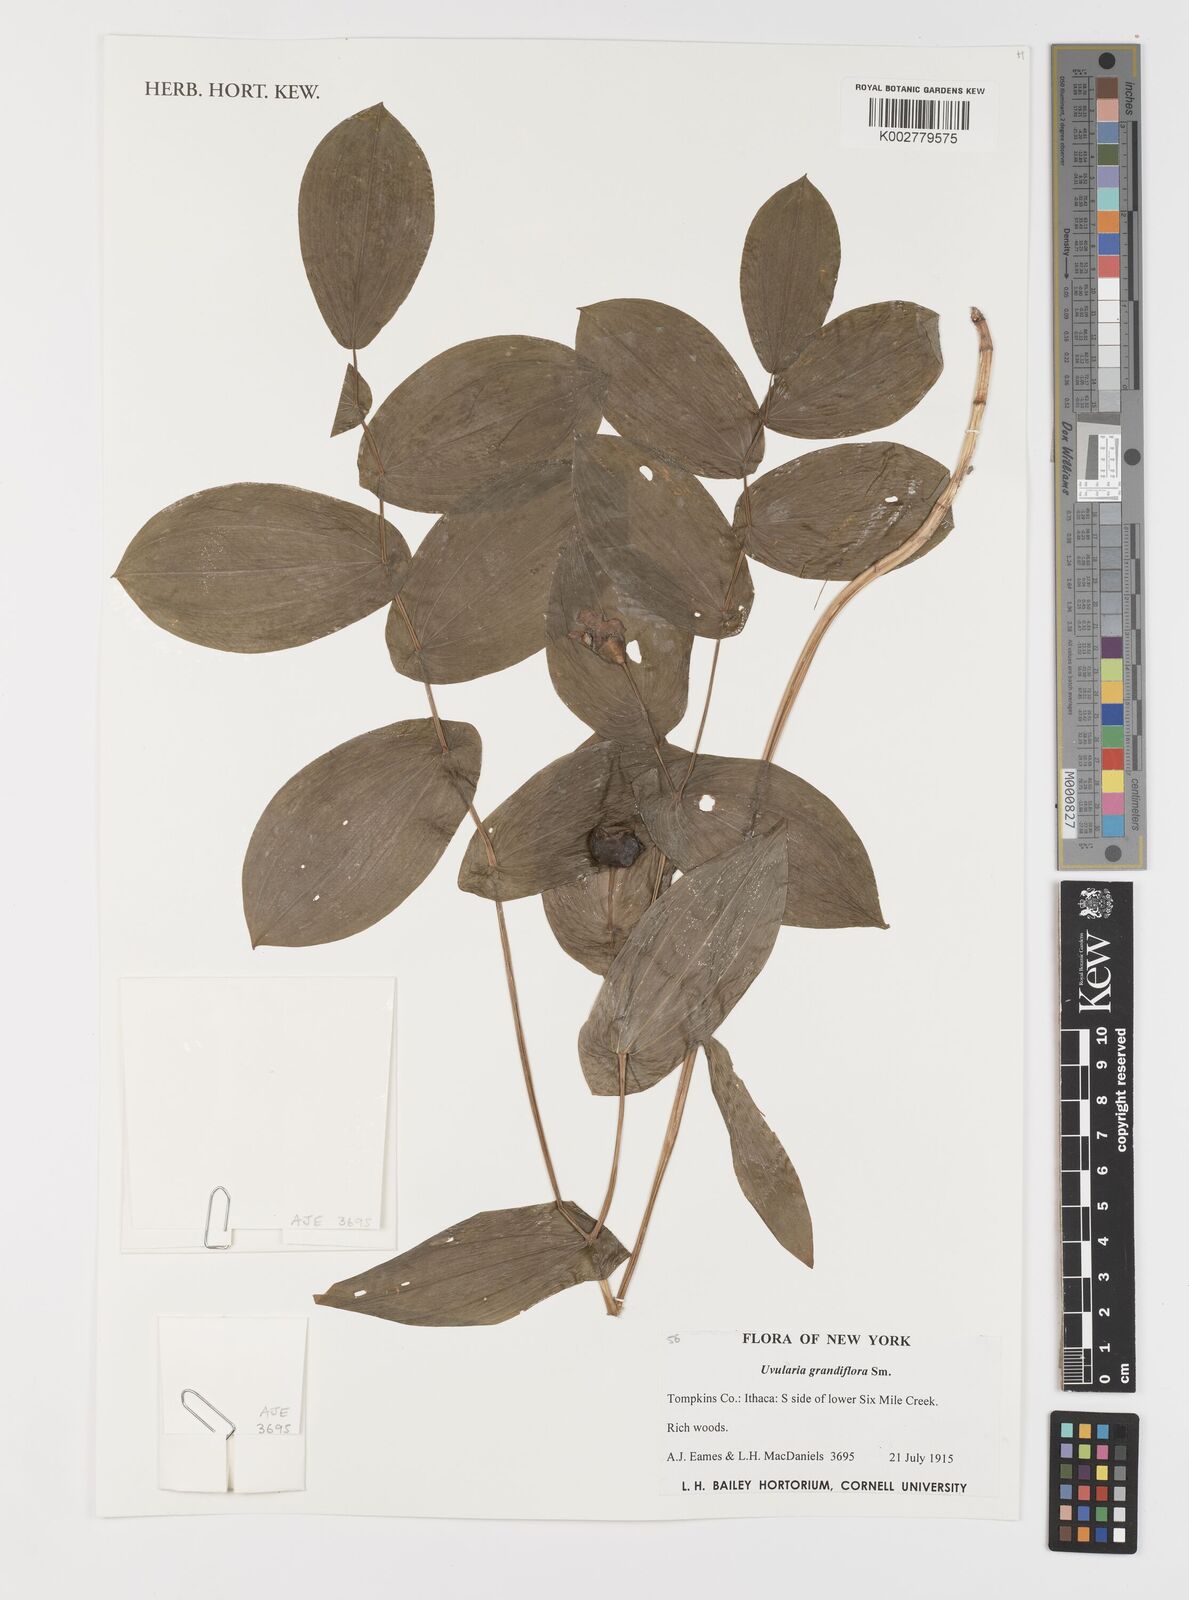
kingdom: Plantae
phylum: Tracheophyta
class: Liliopsida
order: Liliales
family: Colchicaceae
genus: Uvularia
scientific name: Uvularia grandiflora
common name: Bellwort
